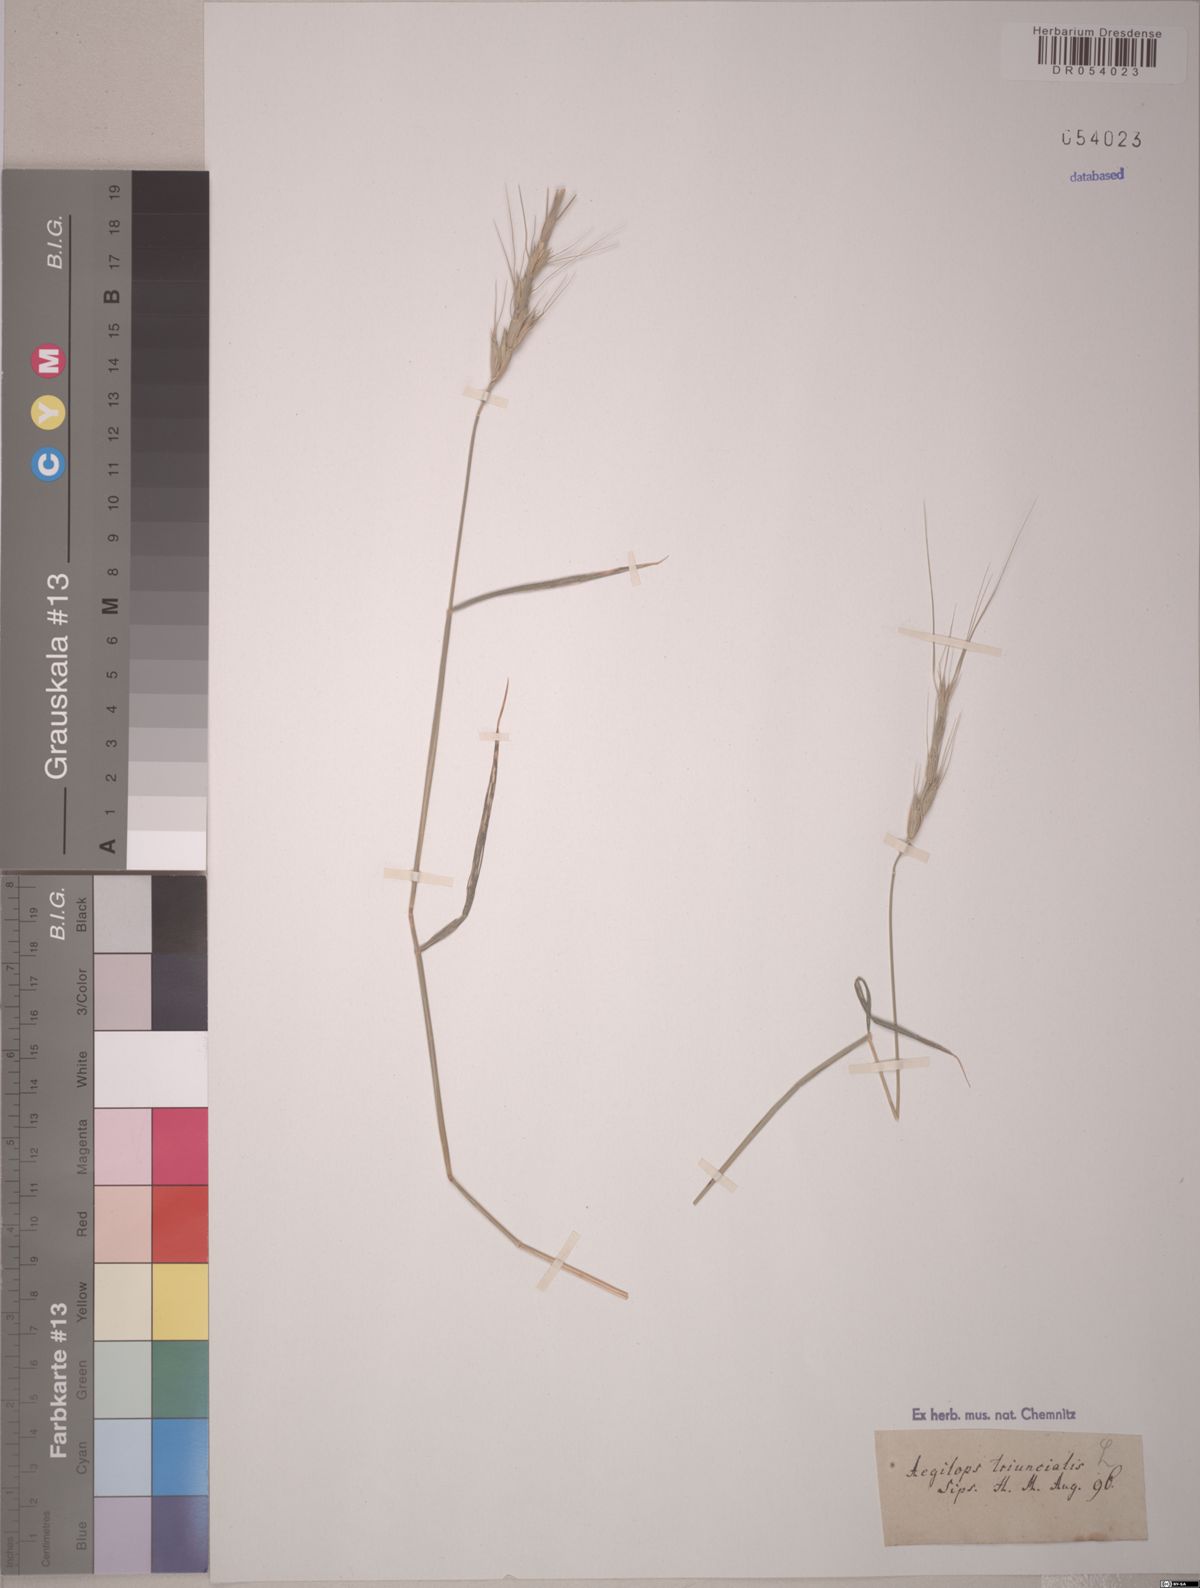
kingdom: Plantae
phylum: Tracheophyta
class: Liliopsida
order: Poales
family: Poaceae
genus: Aegilops
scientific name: Aegilops triuncialis
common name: Barb goat grass
